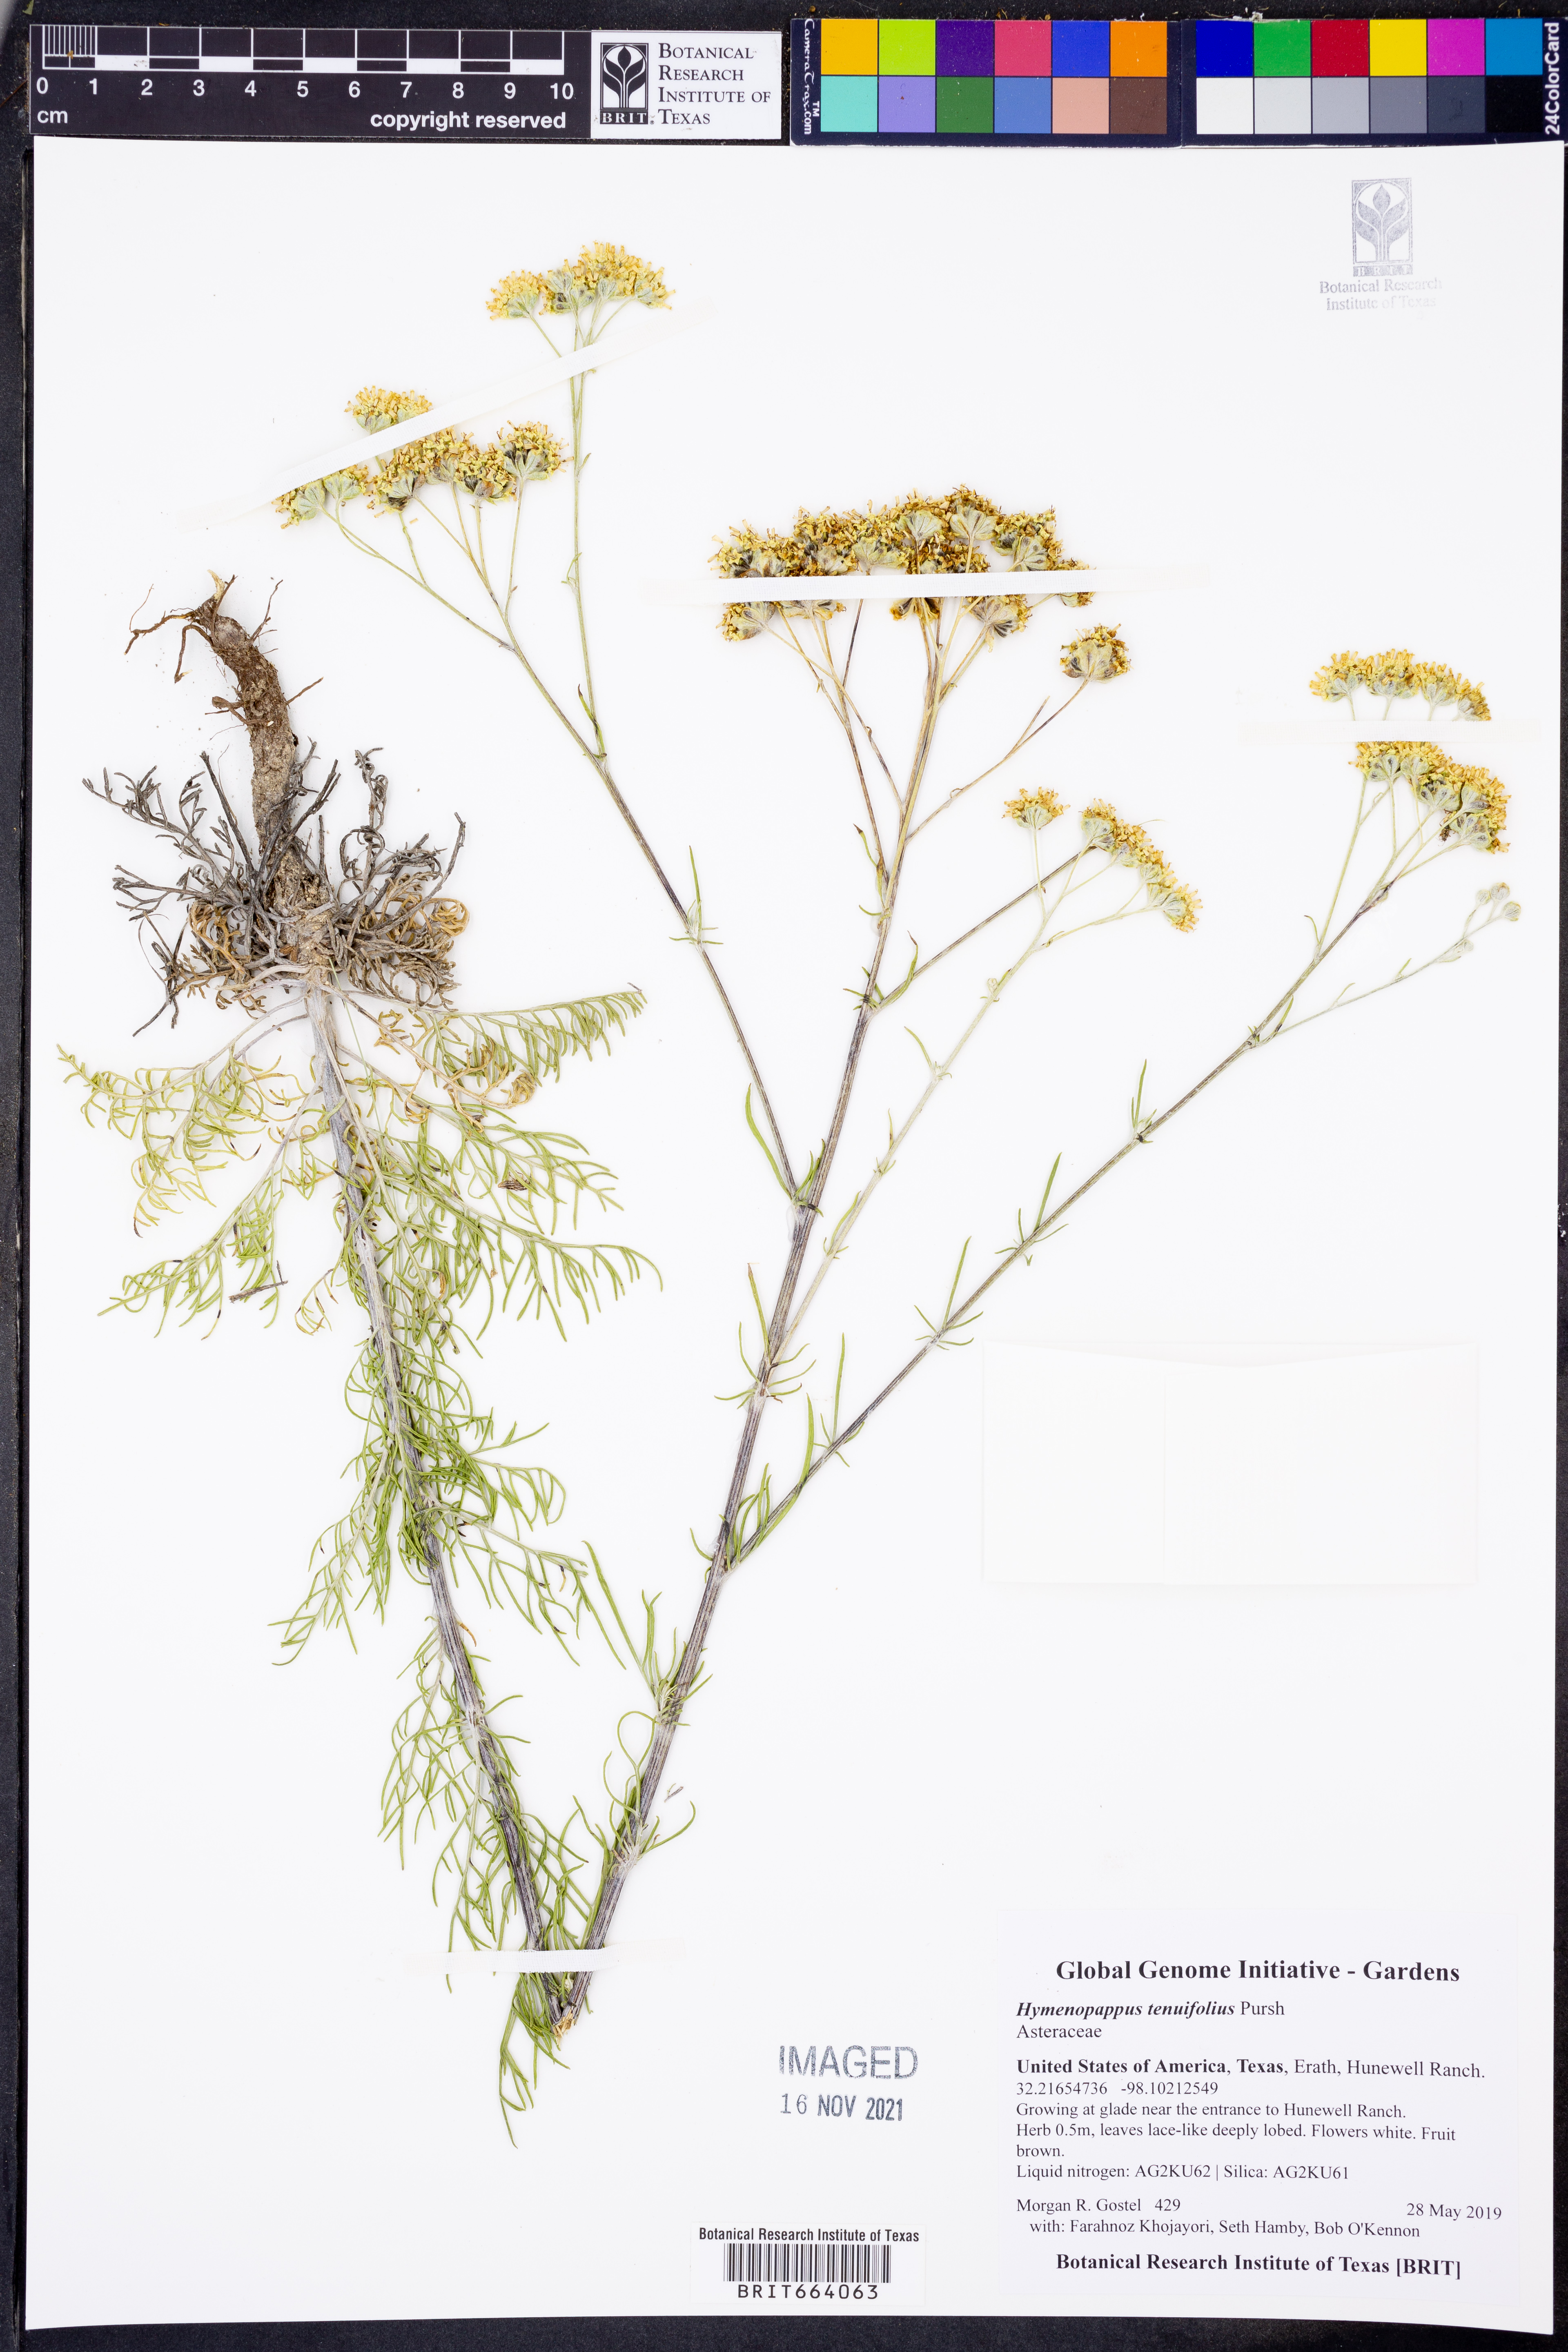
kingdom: Plantae
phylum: Tracheophyta
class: Magnoliopsida
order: Asterales
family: Asteraceae
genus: Hymenopappus
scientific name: Hymenopappus tenuifolius
